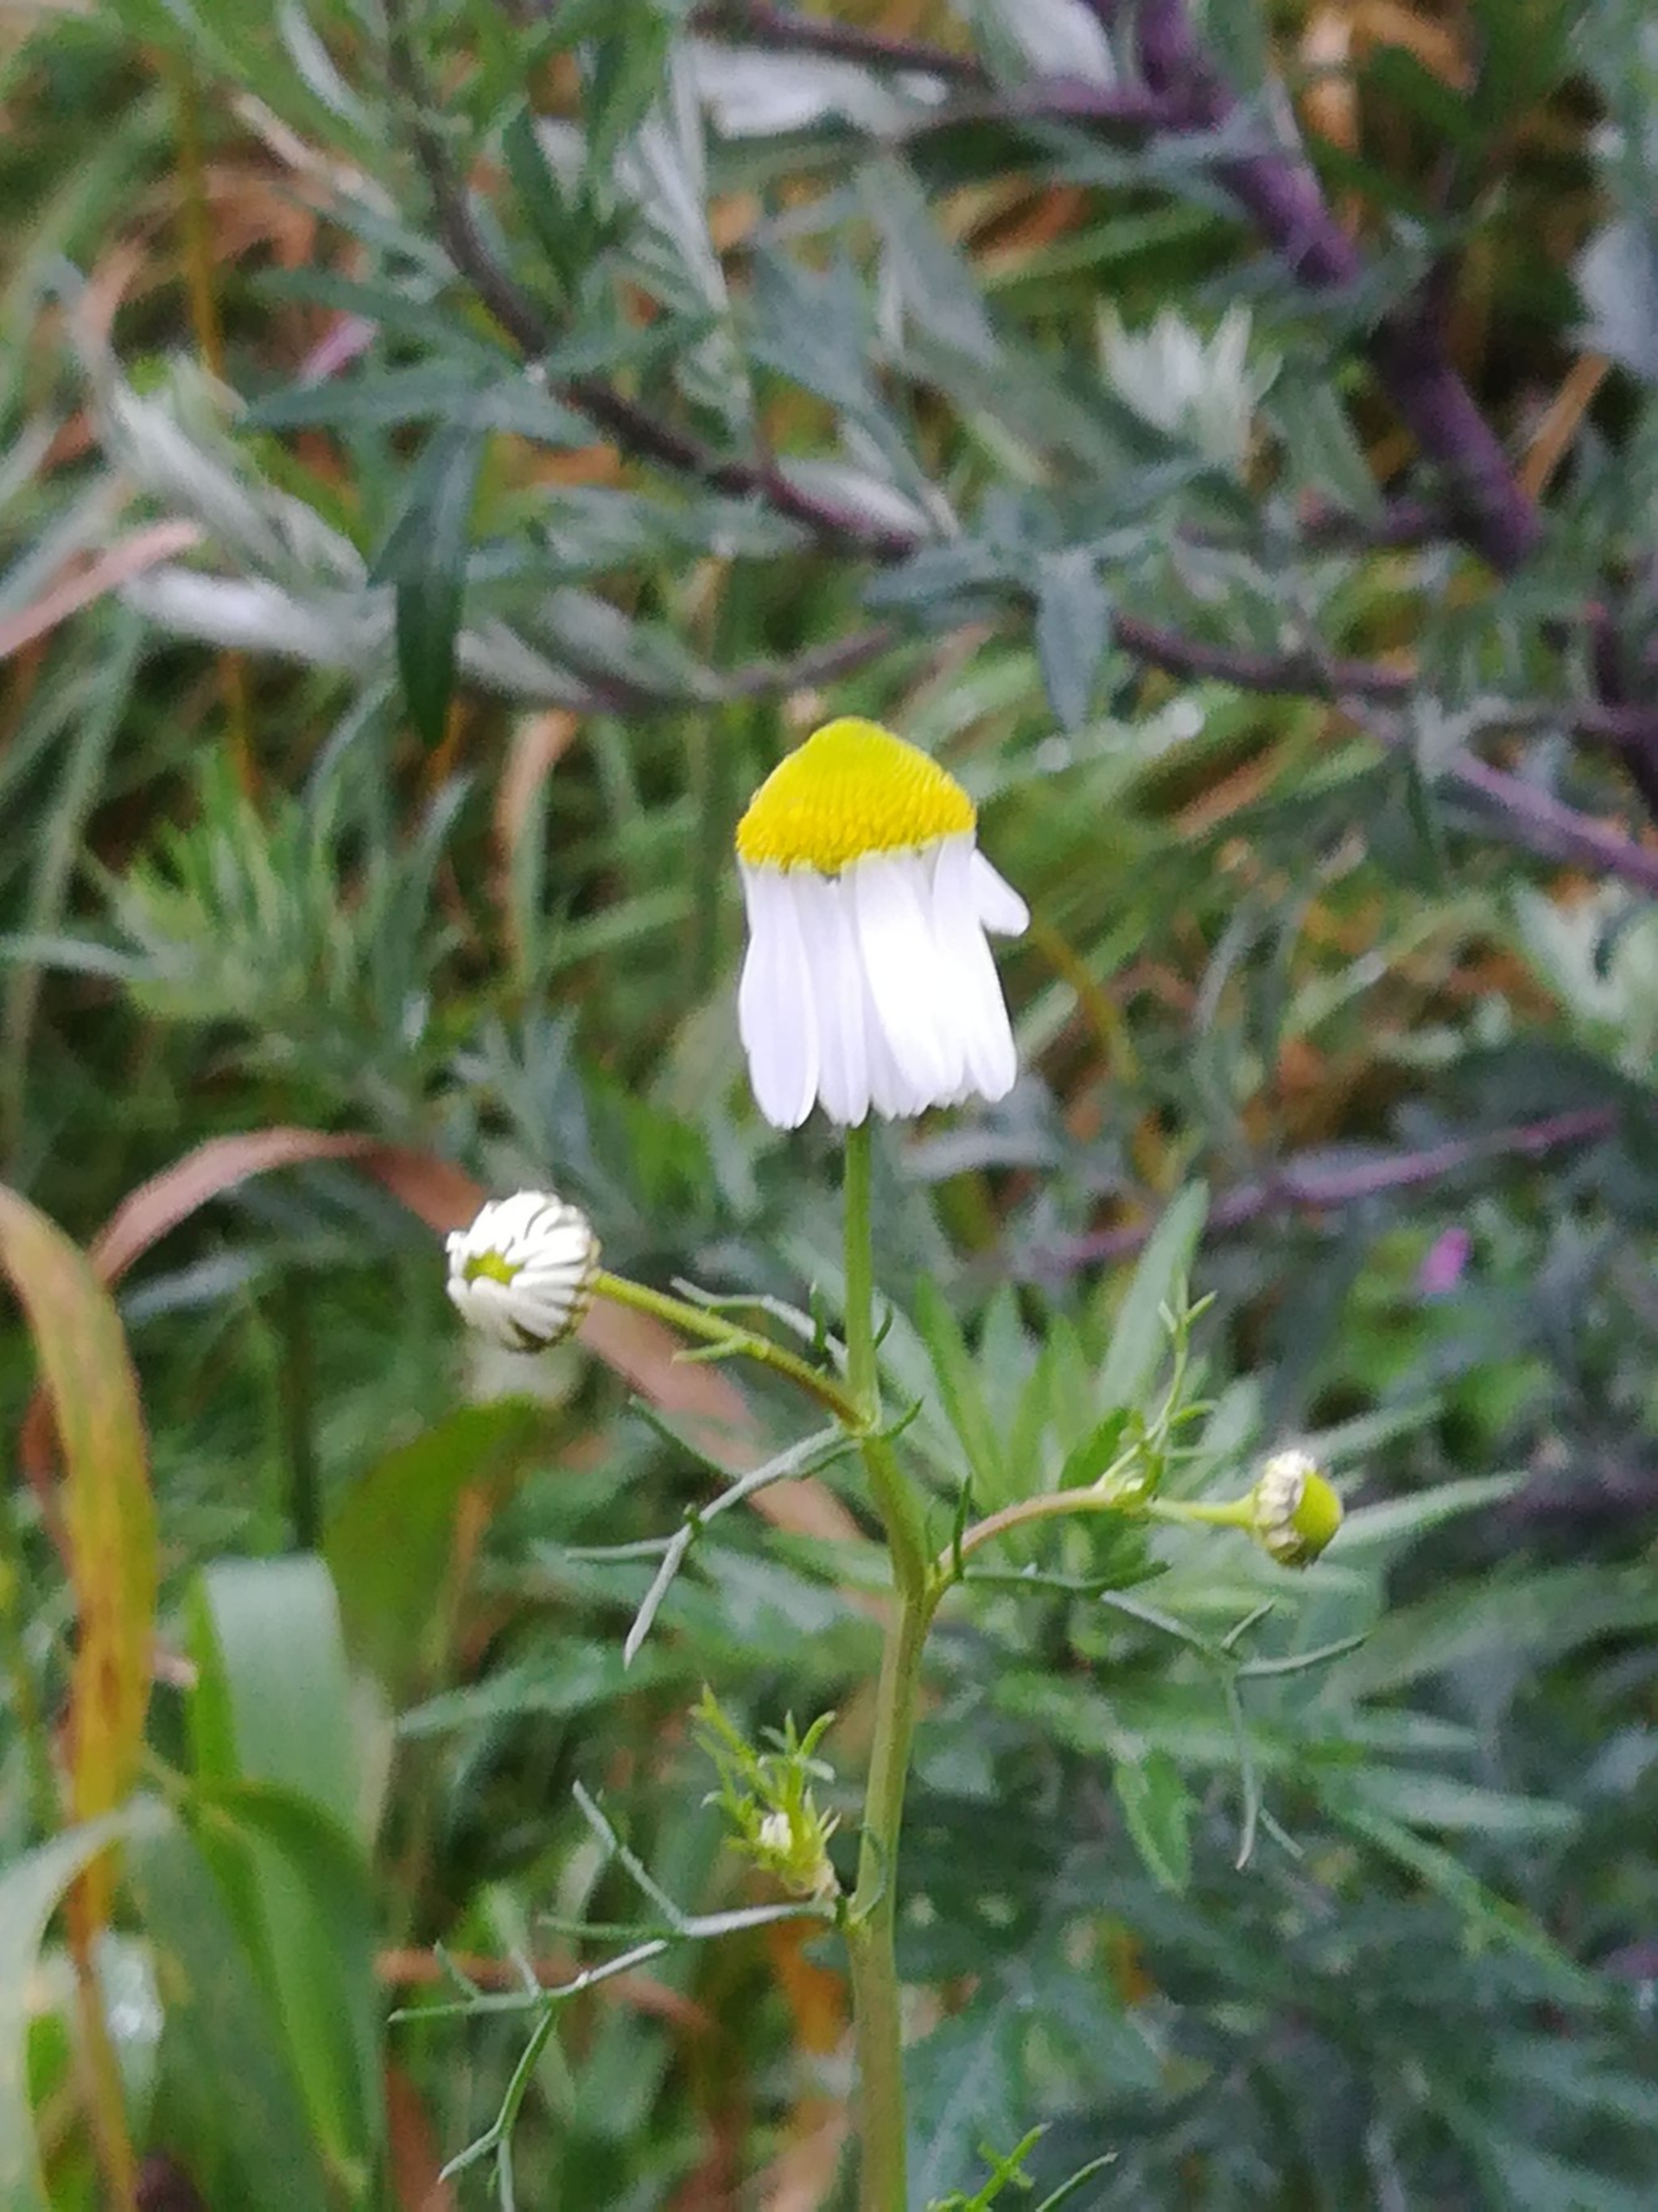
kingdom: Plantae
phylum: Tracheophyta
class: Magnoliopsida
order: Asterales
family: Asteraceae
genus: Matricaria
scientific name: Matricaria chamomilla
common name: Vellugtende kamille
